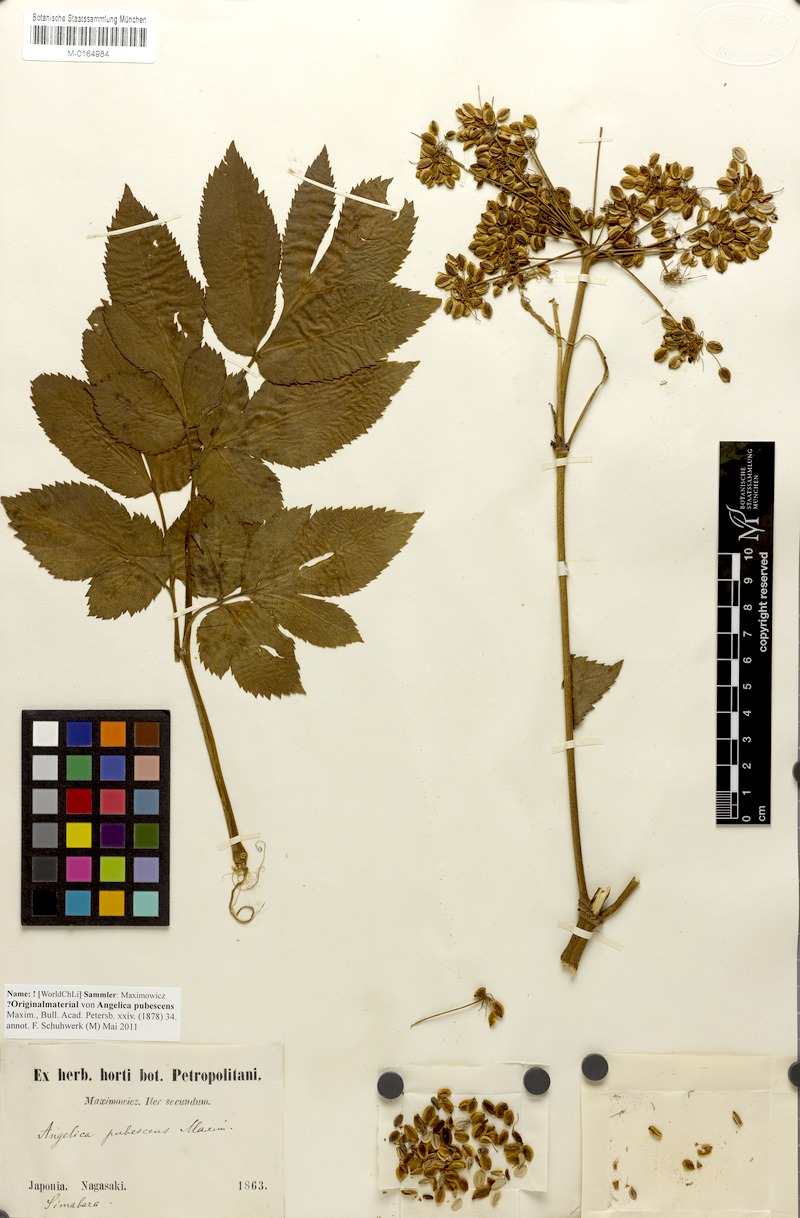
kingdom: Plantae
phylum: Tracheophyta
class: Magnoliopsida
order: Apiales
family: Apiaceae
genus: Angelica
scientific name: Angelica pubescens
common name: Pubescent angelica
